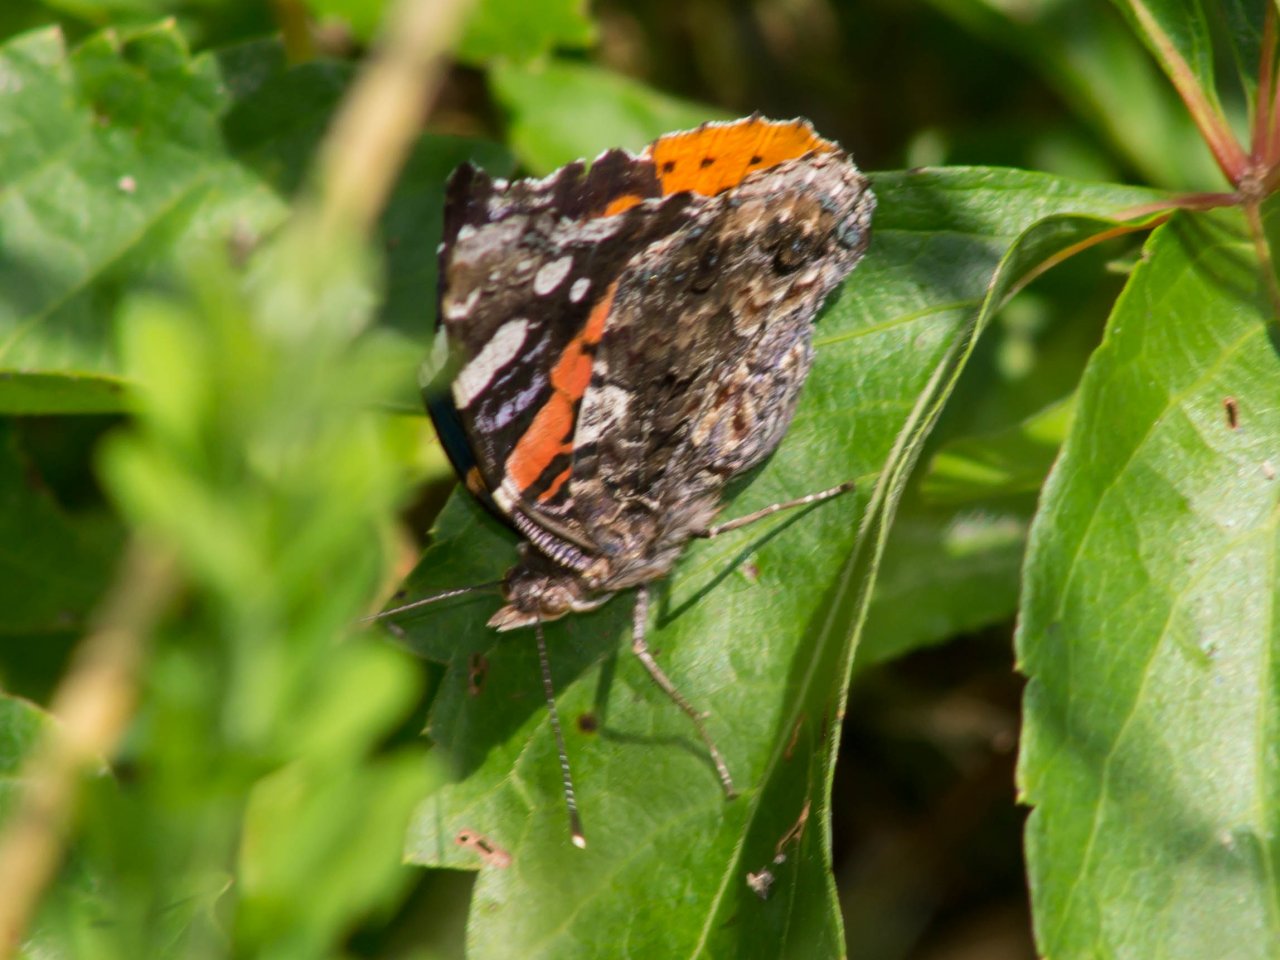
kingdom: Animalia
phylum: Arthropoda
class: Insecta
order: Lepidoptera
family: Nymphalidae
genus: Vanessa
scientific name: Vanessa atalanta
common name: Red Admiral
